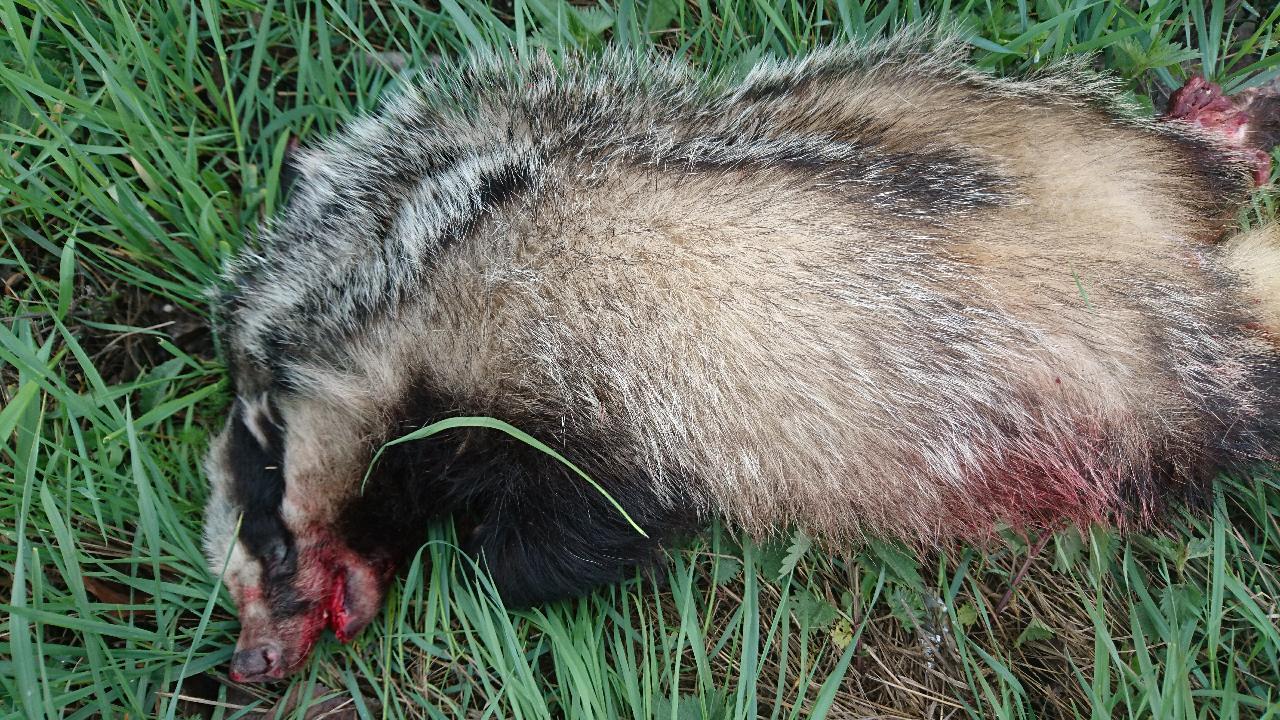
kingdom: Animalia
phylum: Chordata
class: Mammalia
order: Carnivora
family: Mustelidae
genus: Meles
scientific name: Meles meles
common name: Eurasian badger
